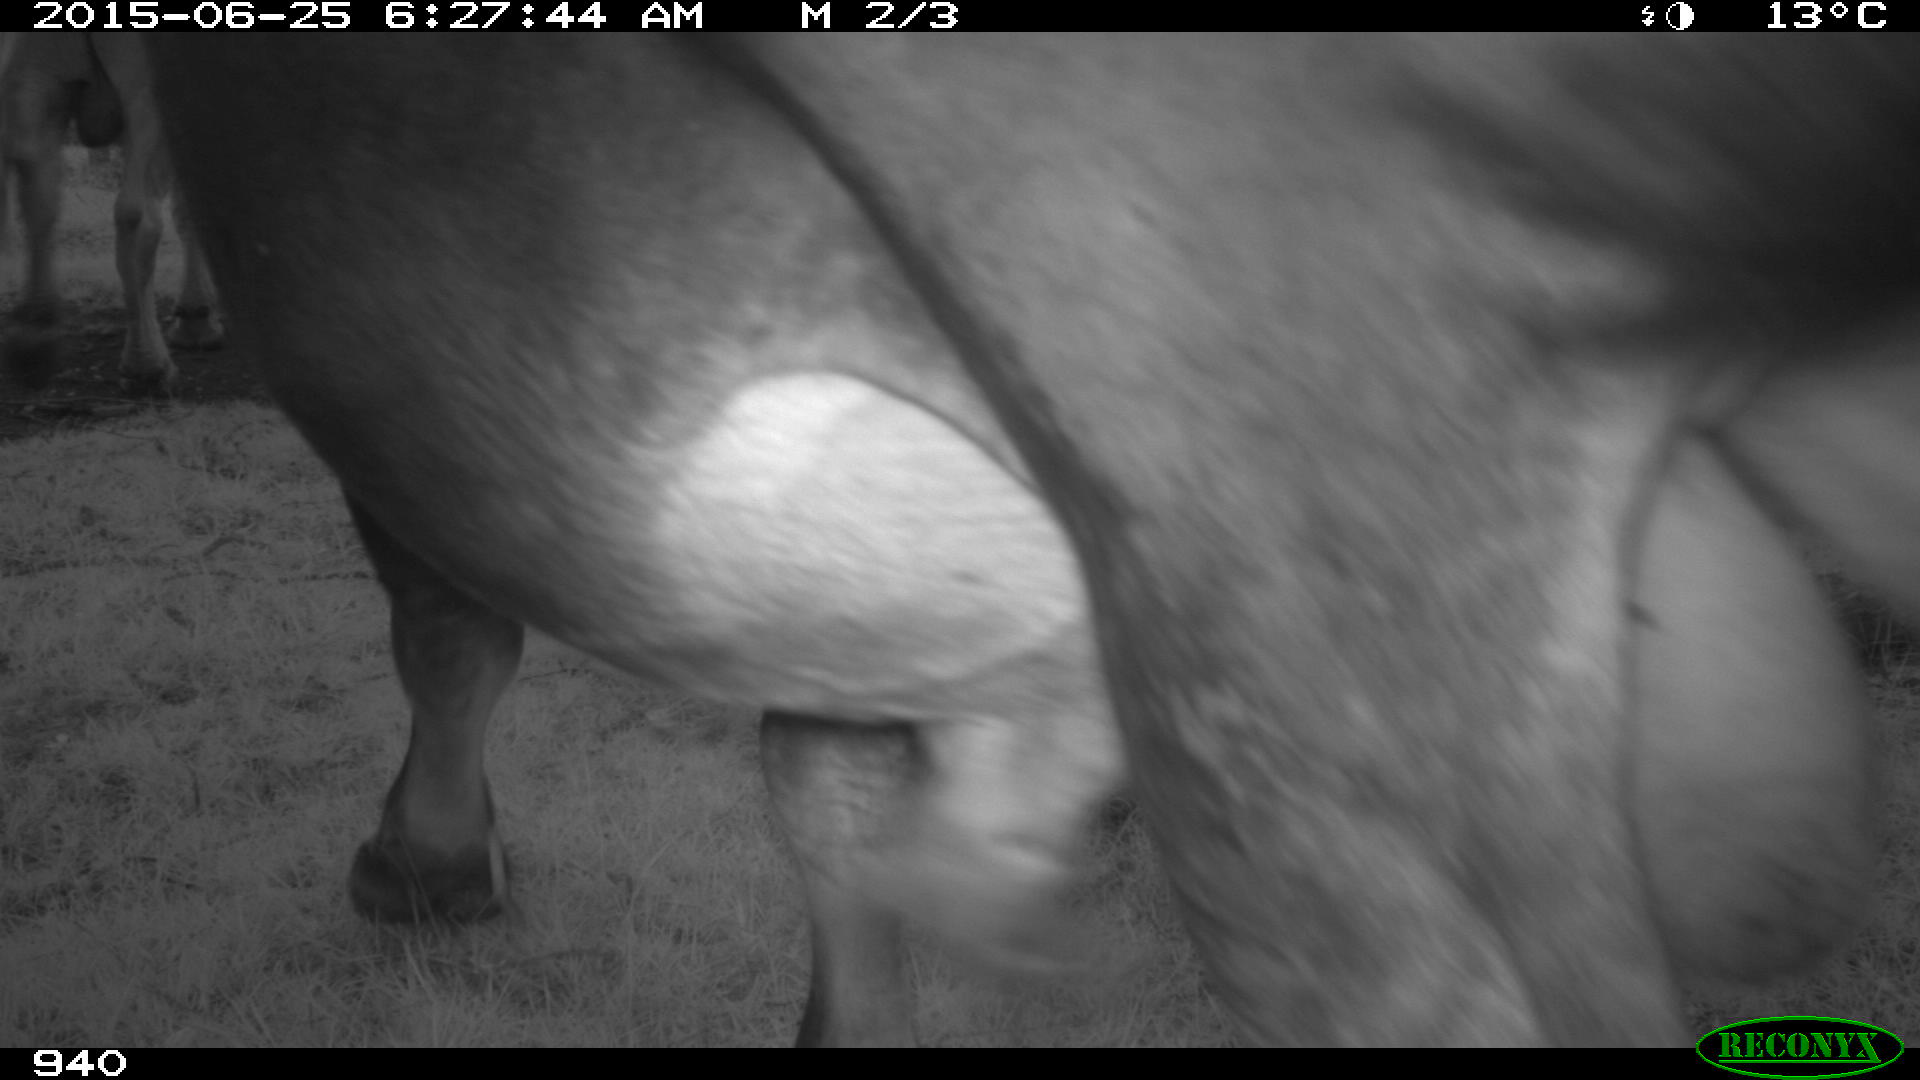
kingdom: Animalia
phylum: Chordata
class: Mammalia
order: Artiodactyla
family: Bovidae
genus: Bos
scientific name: Bos taurus
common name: Domesticated cattle
